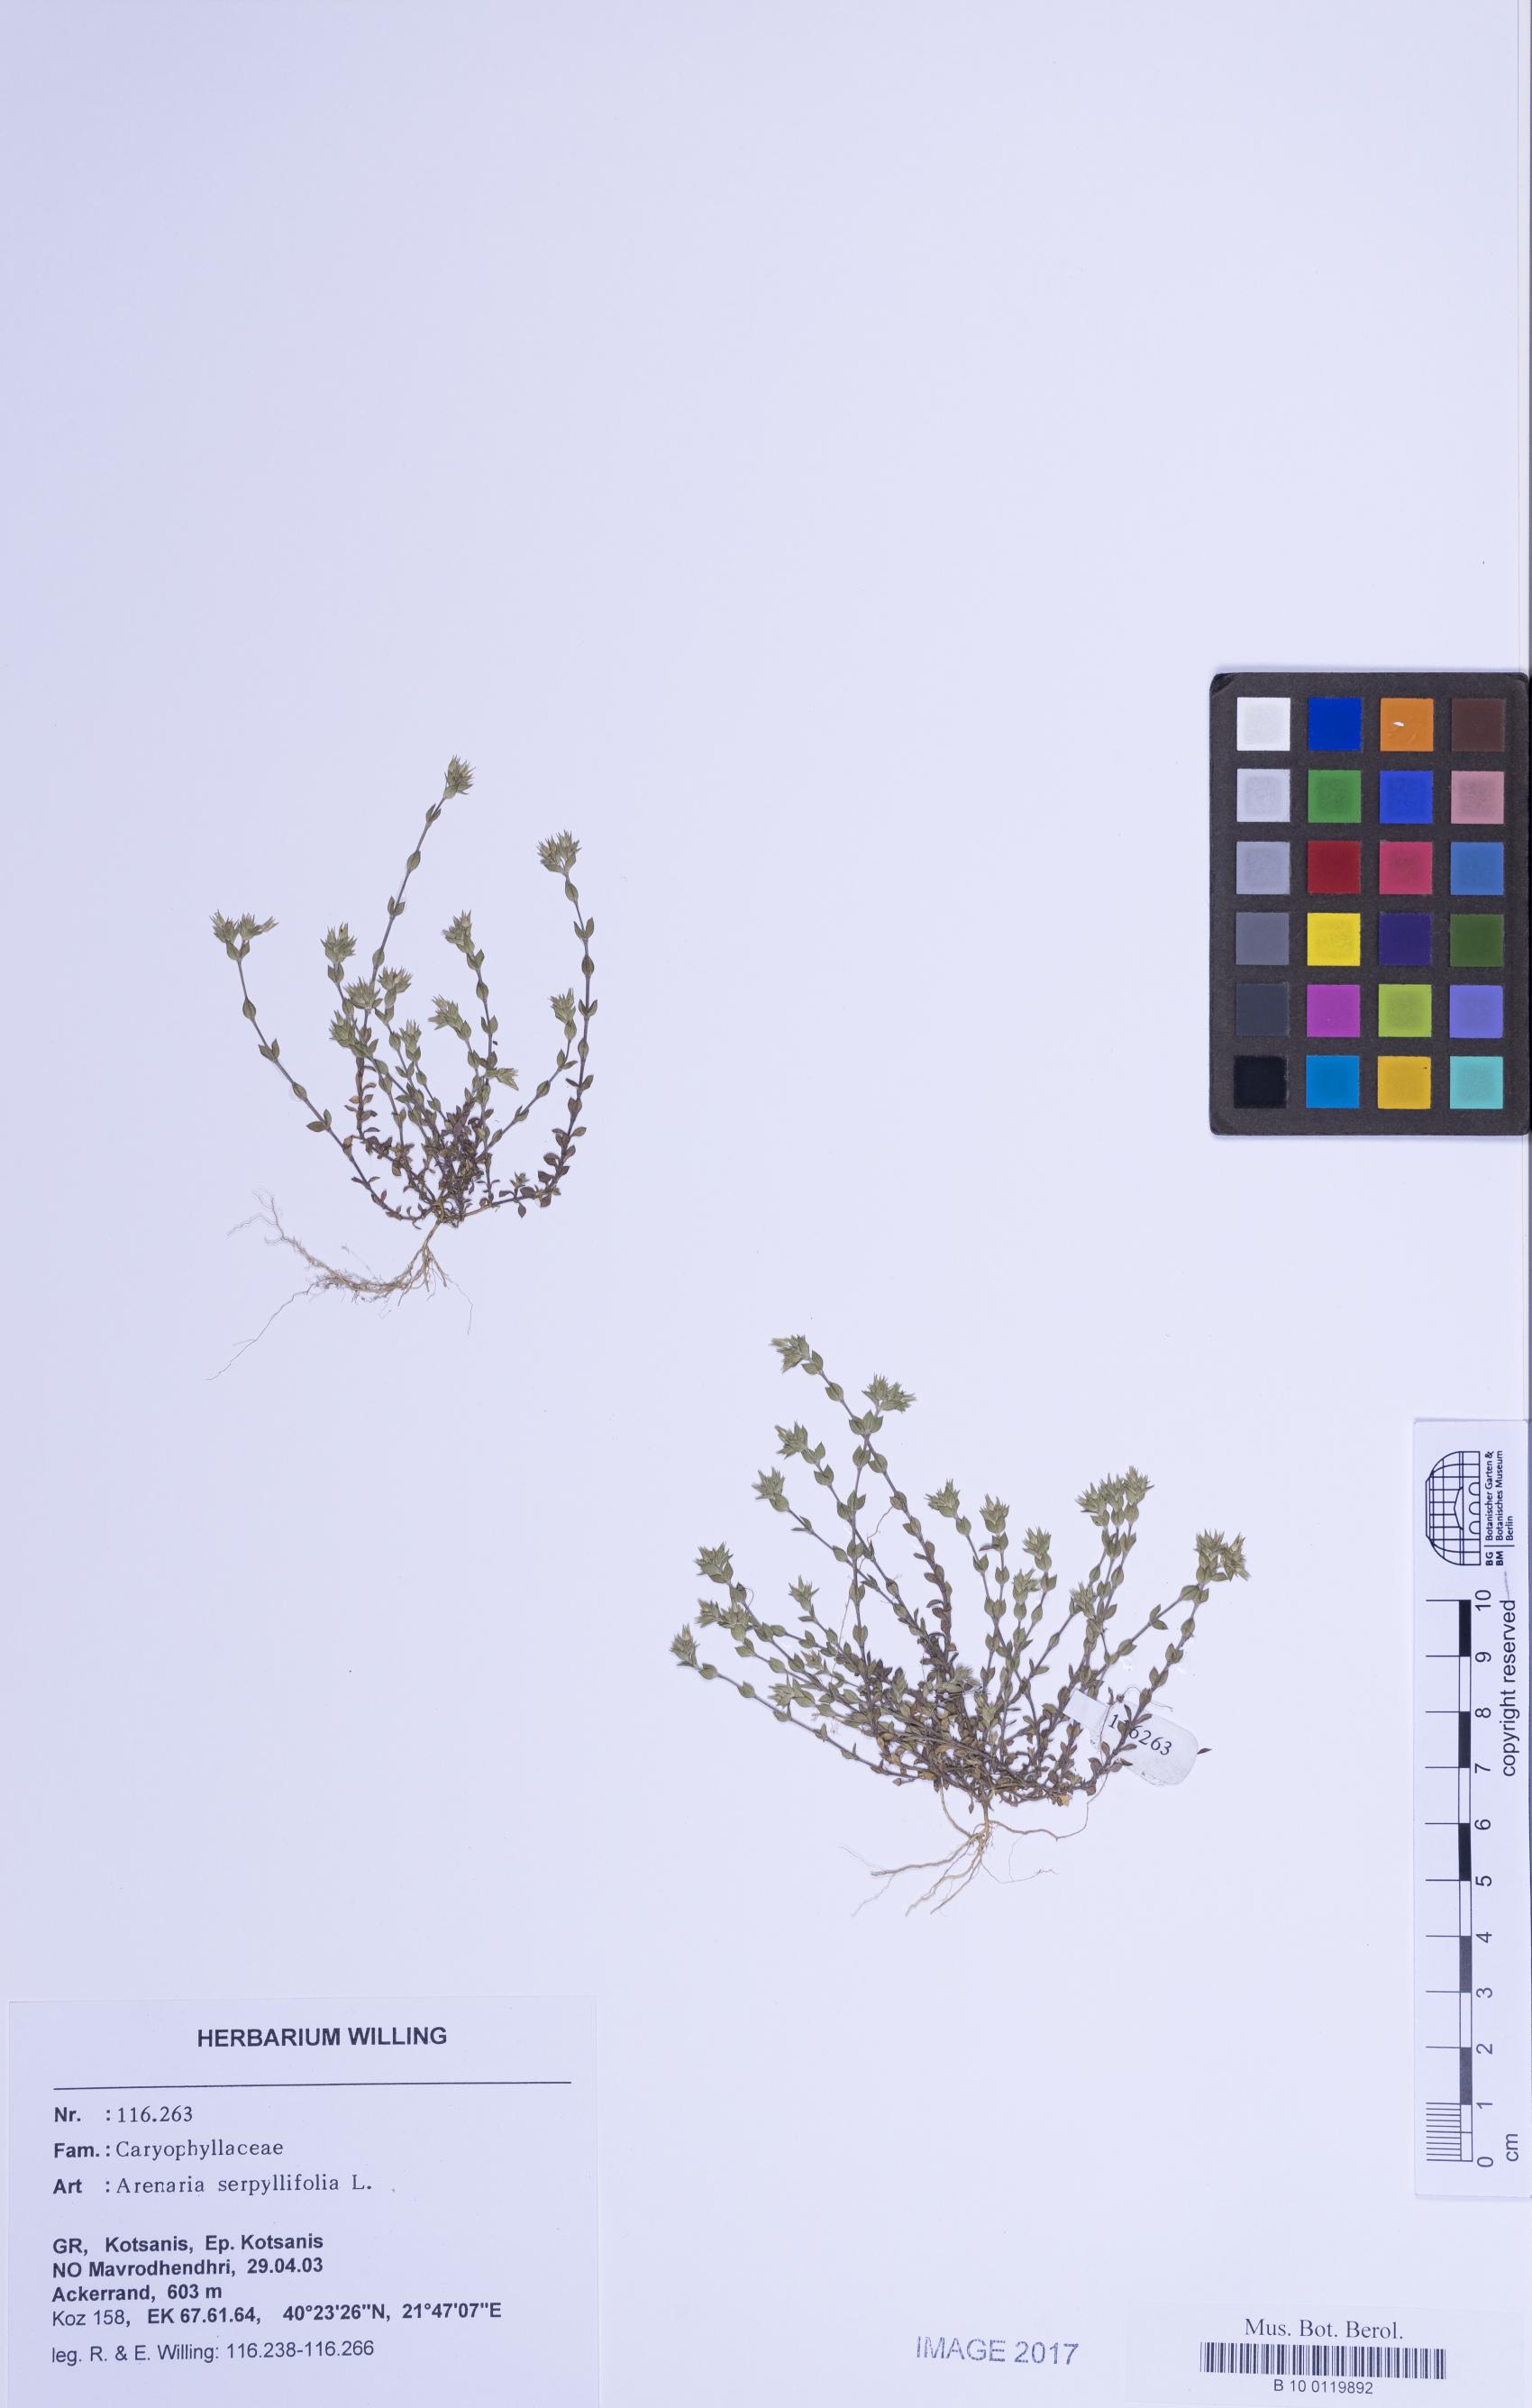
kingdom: Plantae
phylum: Tracheophyta
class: Magnoliopsida
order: Caryophyllales
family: Caryophyllaceae
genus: Arenaria
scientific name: Arenaria serpyllifolia
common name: Thyme-leaved sandwort
